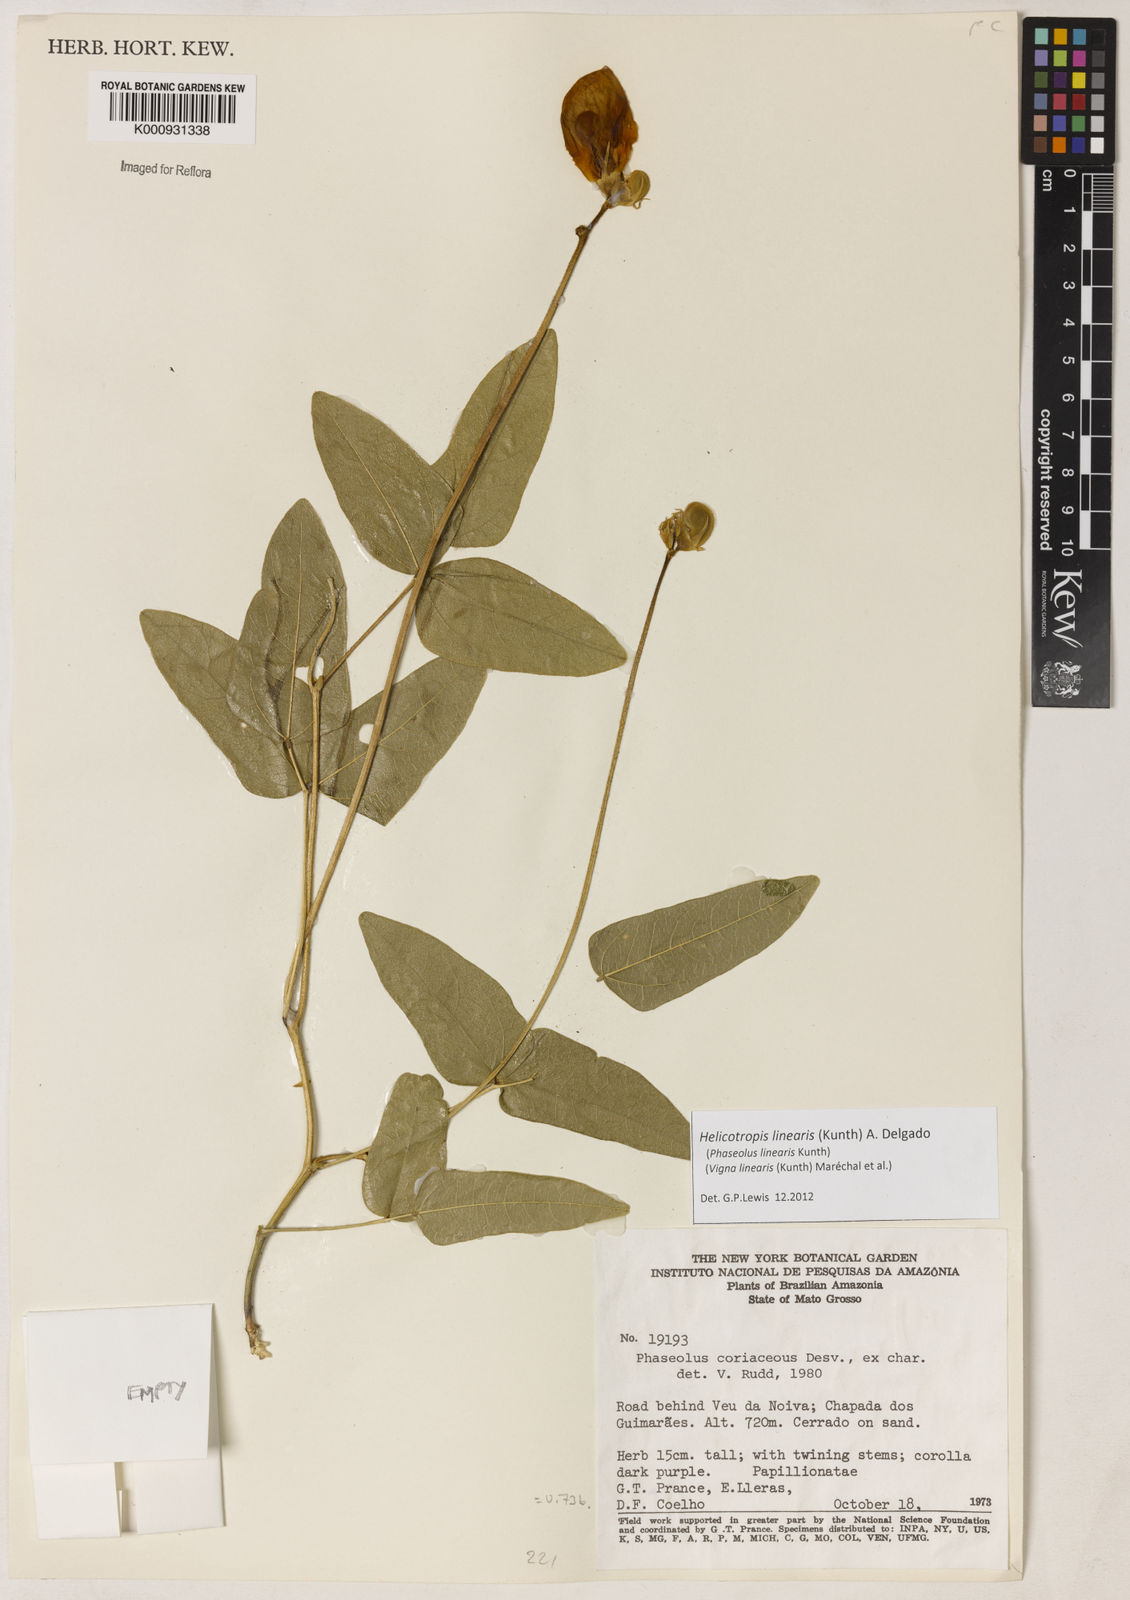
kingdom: Plantae
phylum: Tracheophyta
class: Magnoliopsida
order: Fabales
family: Fabaceae
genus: Helicotropis
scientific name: Helicotropis linearis
